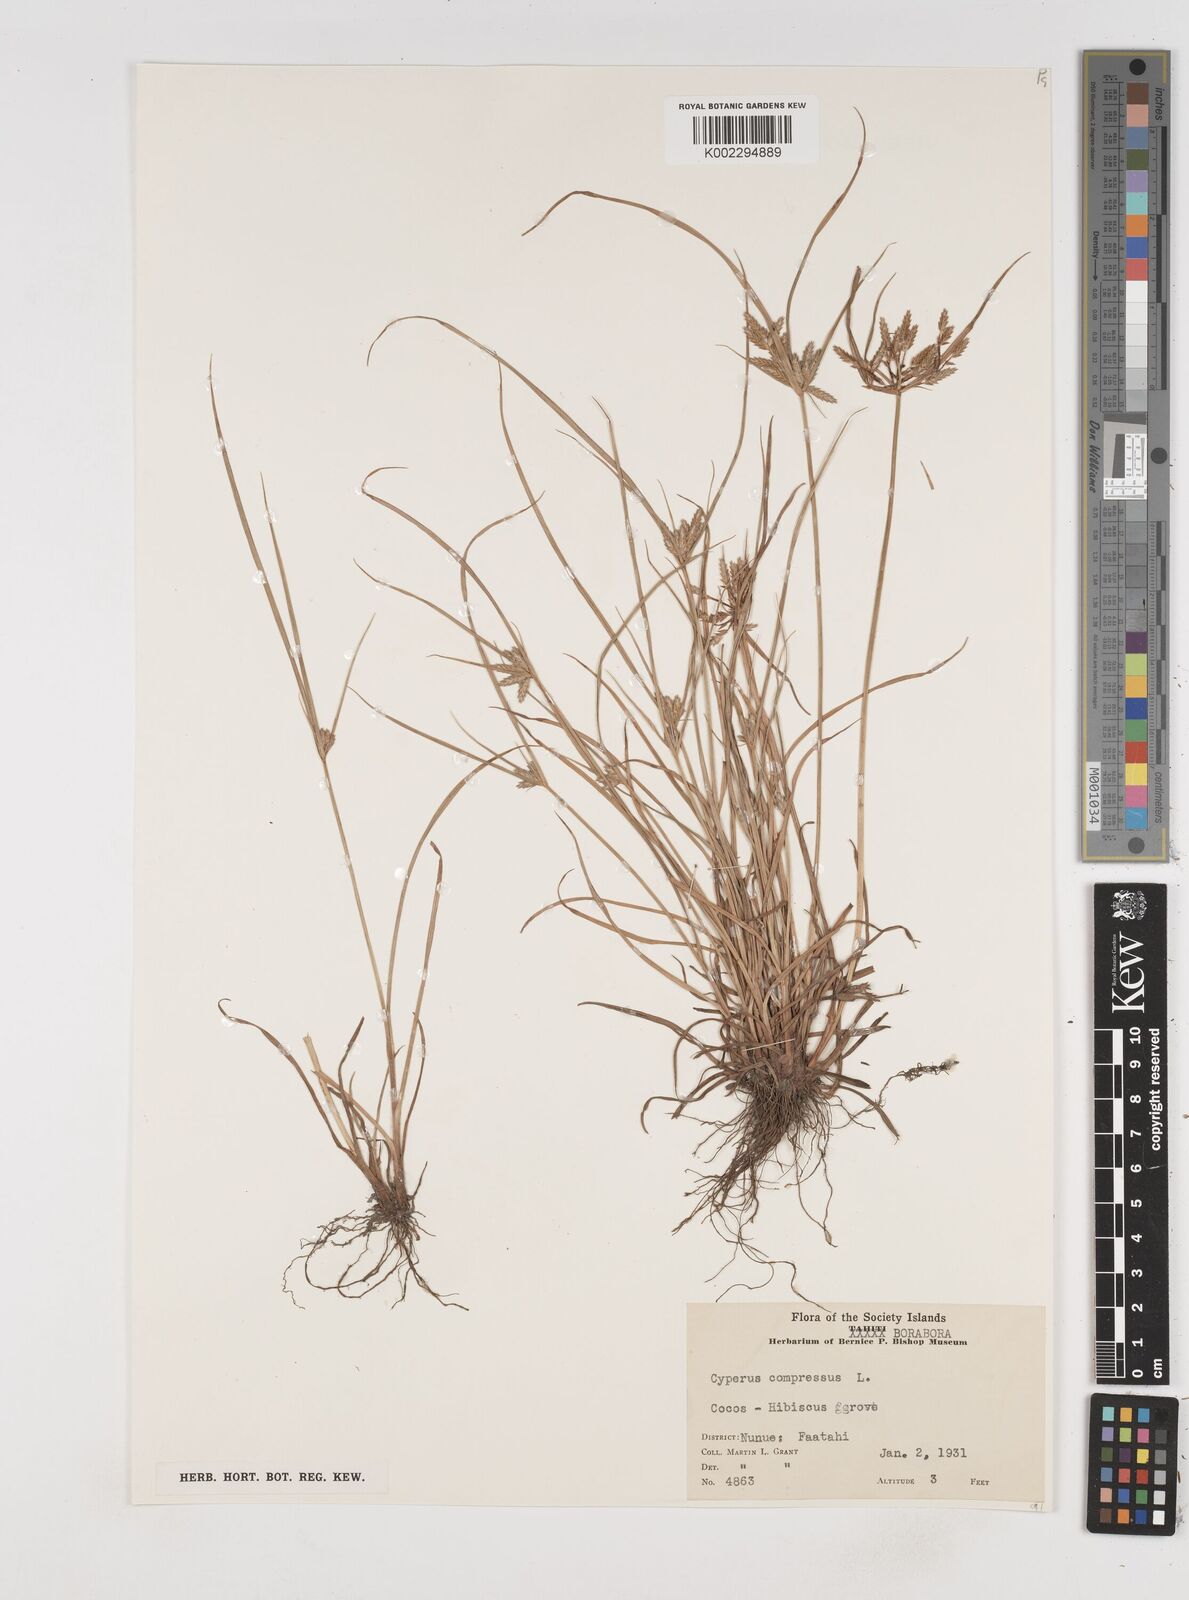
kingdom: Plantae
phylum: Tracheophyta
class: Liliopsida
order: Poales
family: Cyperaceae
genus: Cyperus
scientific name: Cyperus compressus
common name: Poorland flatsedge
